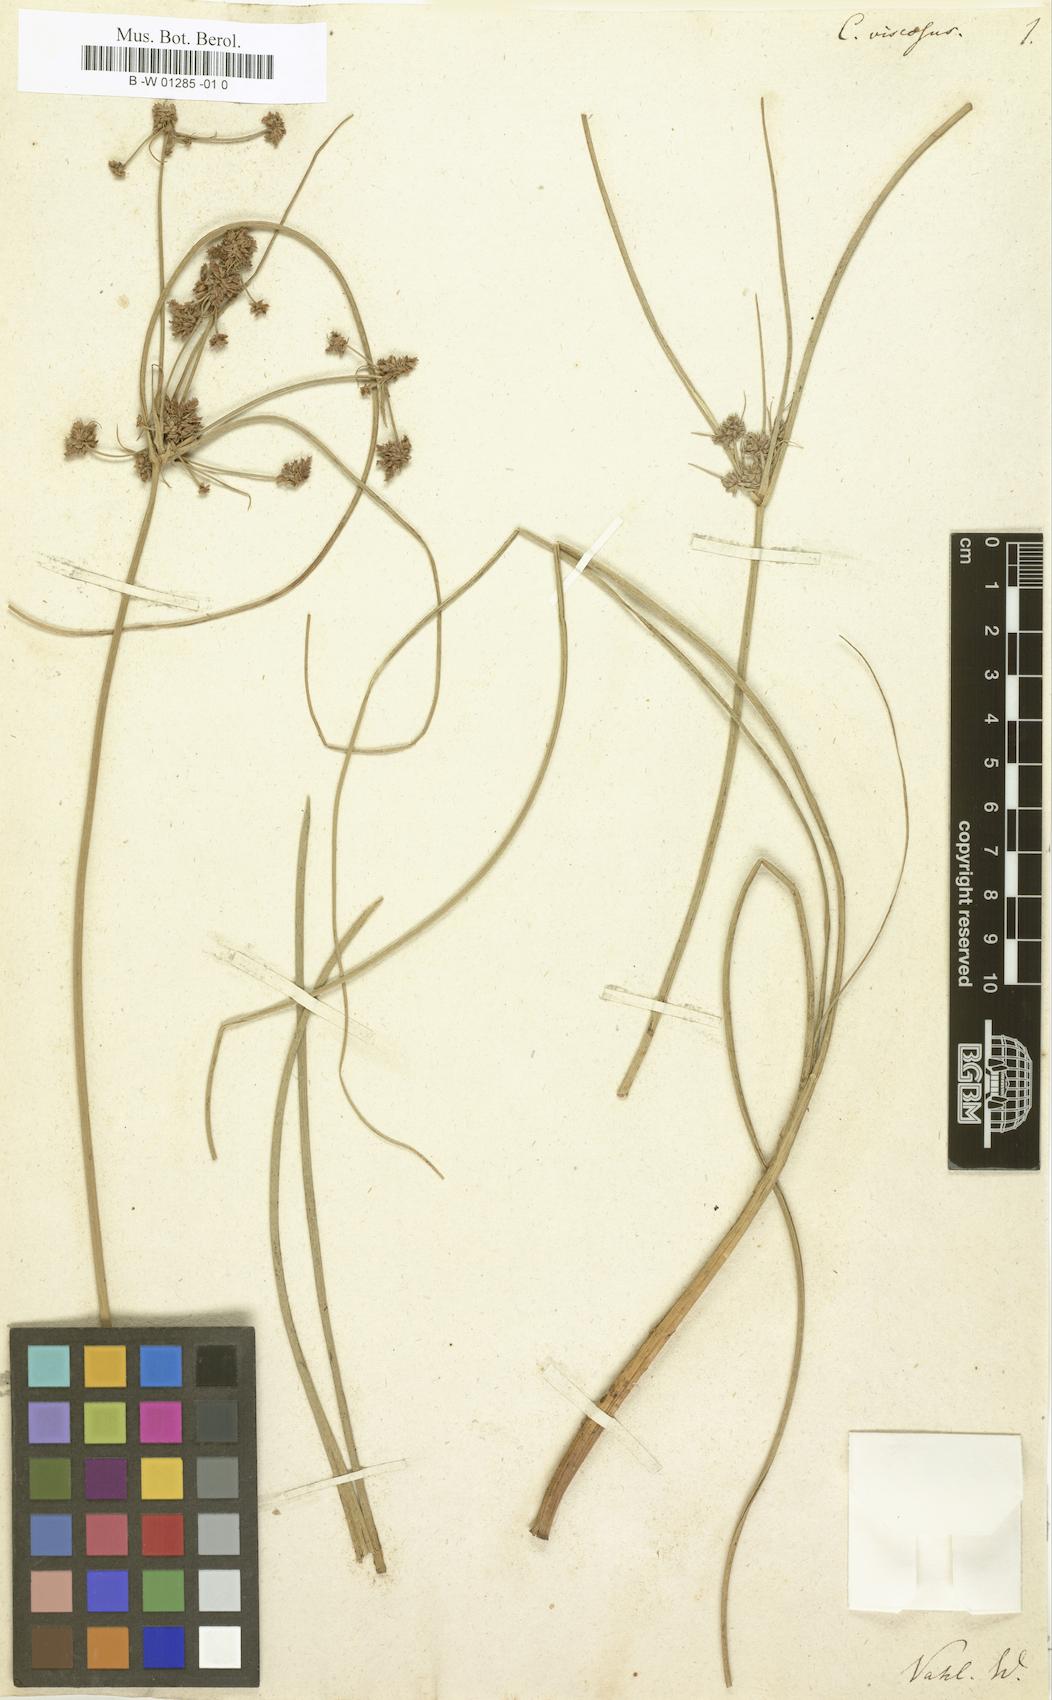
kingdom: Plantae
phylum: Tracheophyta
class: Liliopsida
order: Poales
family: Cyperaceae
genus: Cyperus
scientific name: Cyperus elegans
